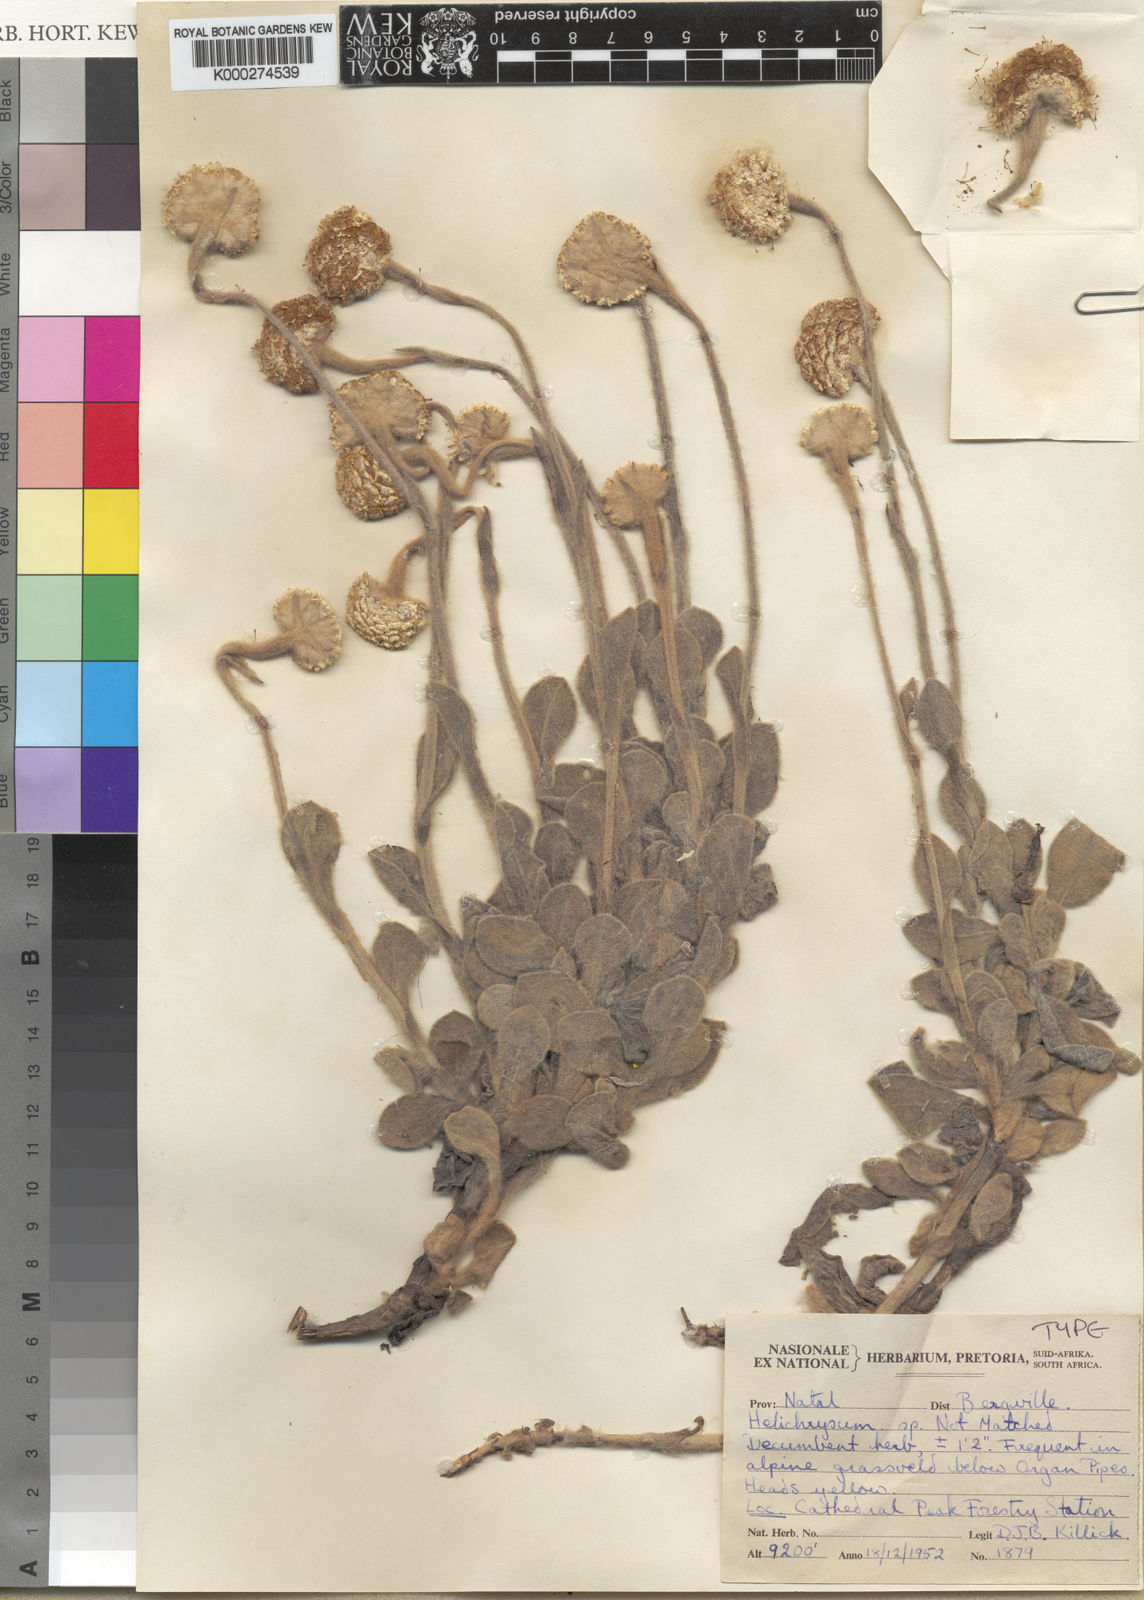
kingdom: Plantae
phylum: Tracheophyta
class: Magnoliopsida
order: Asterales
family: Asteraceae
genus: Helichrysum
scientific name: Helichrysum drakensbergense
